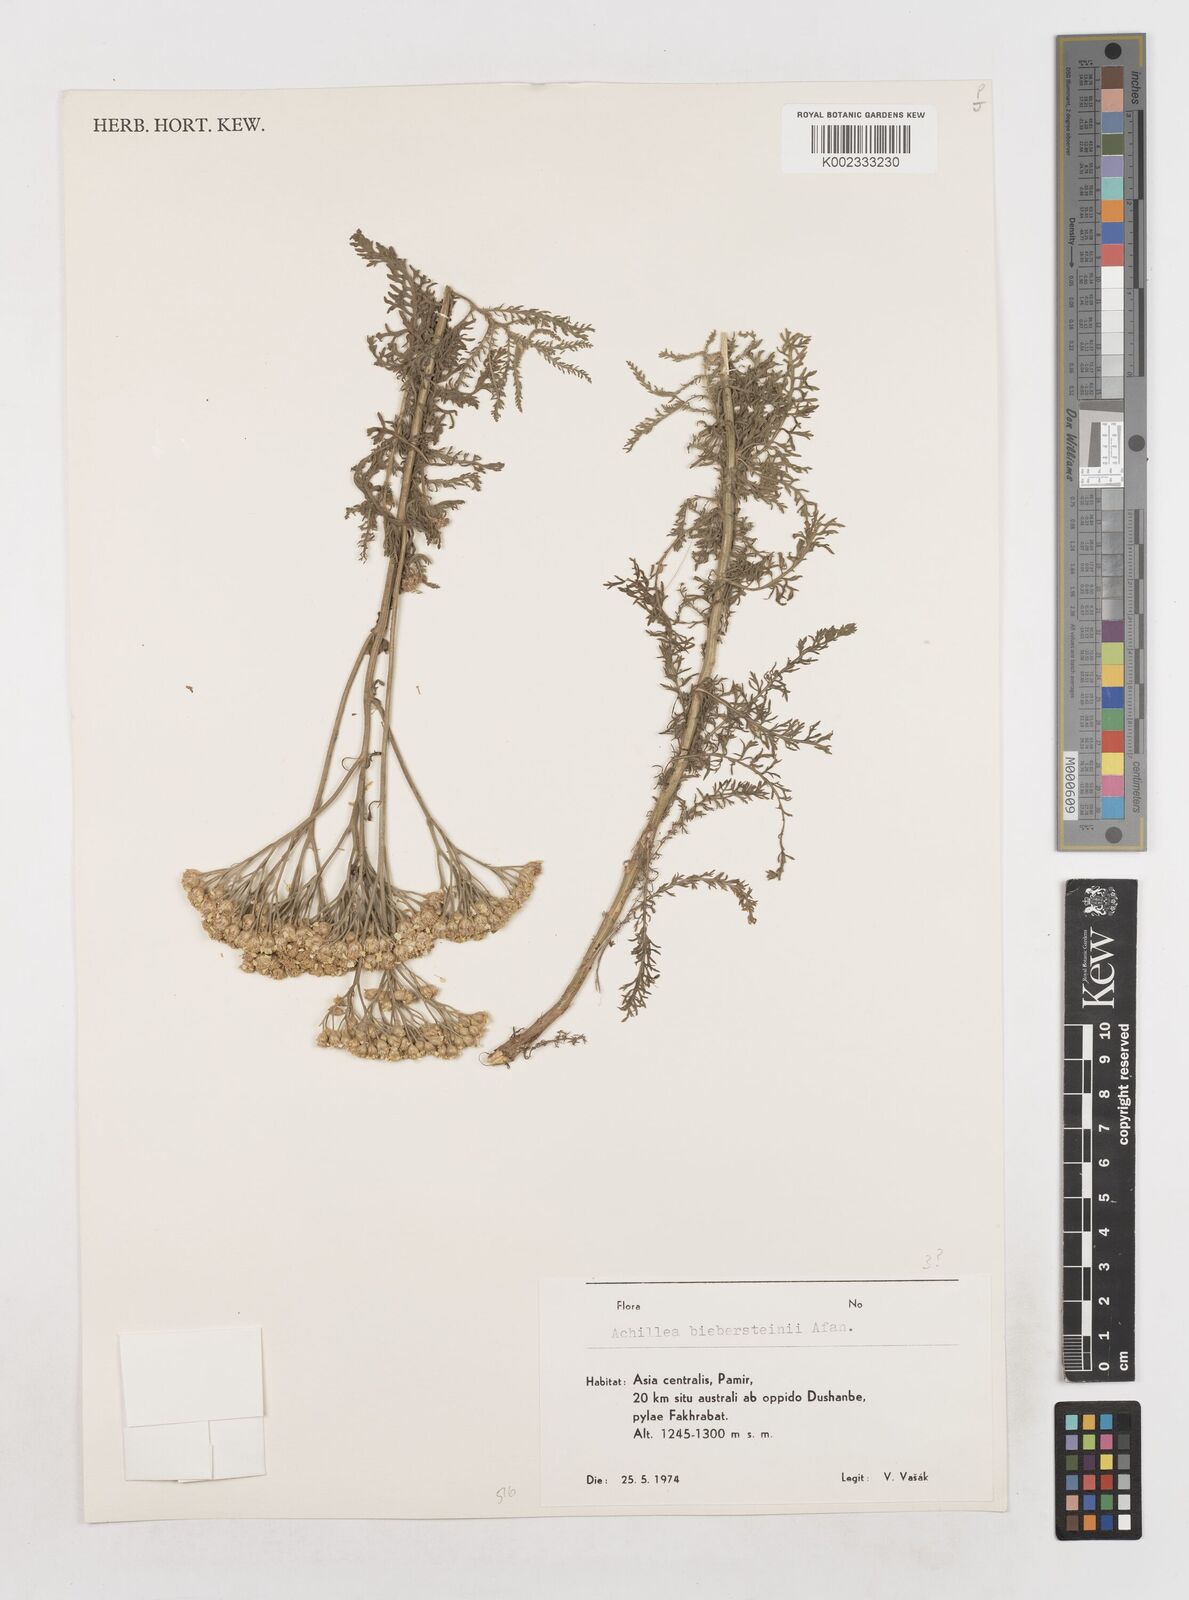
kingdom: Plantae
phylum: Tracheophyta
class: Magnoliopsida
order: Asterales
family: Asteraceae
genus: Achillea
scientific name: Achillea micrantha
